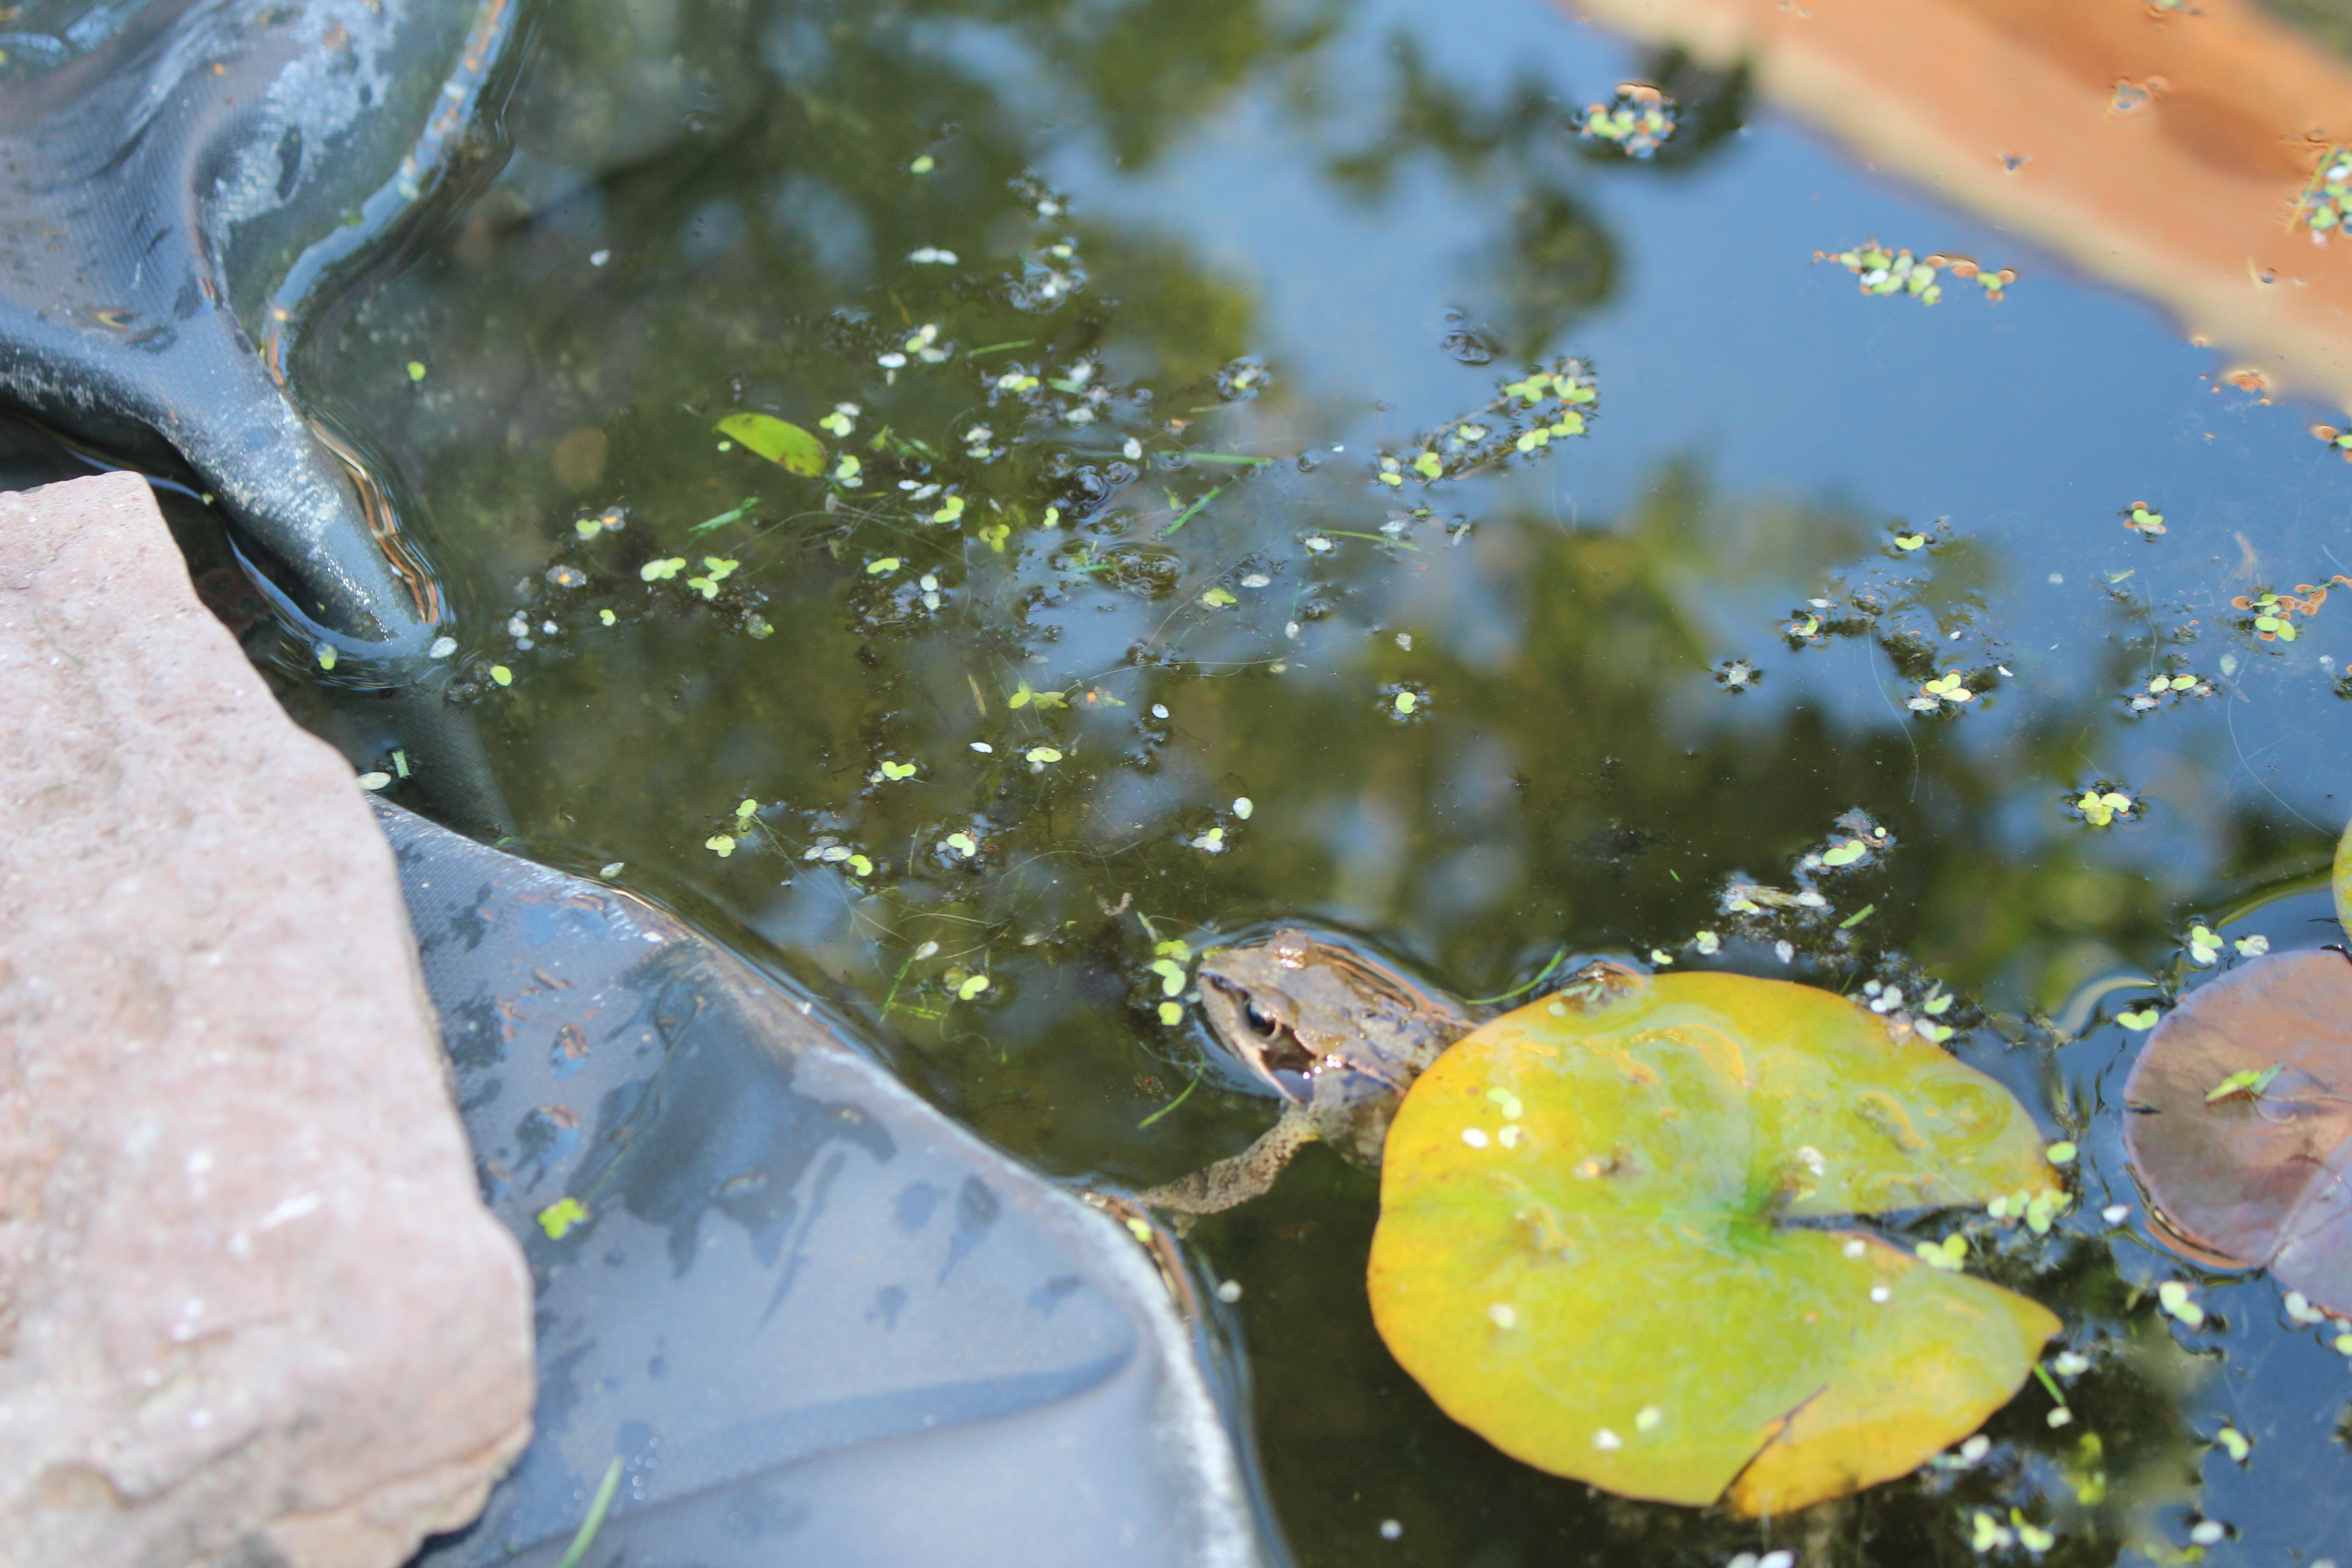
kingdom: Animalia
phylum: Chordata
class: Amphibia
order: Anura
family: Ranidae
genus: Rana
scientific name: Rana temporaria
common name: Butsnudet frø
